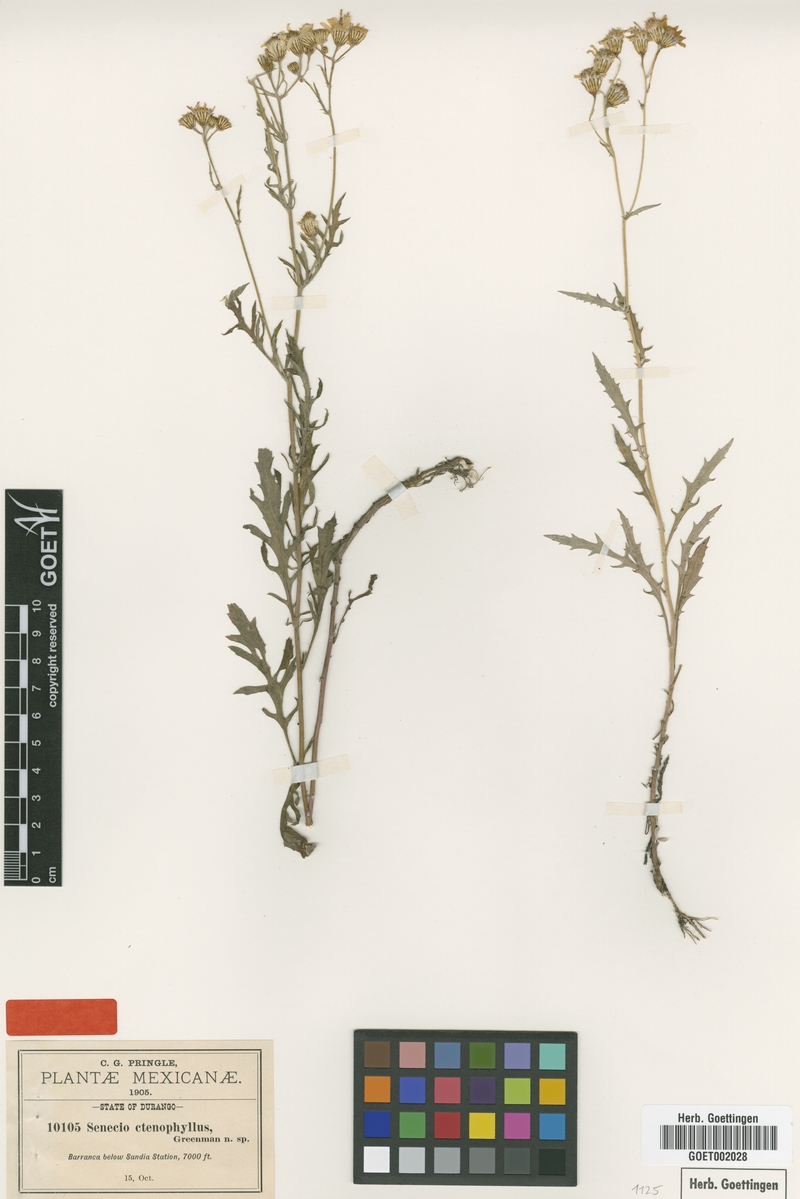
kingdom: Plantae
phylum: Tracheophyta
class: Magnoliopsida
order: Asterales
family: Asteraceae
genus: Senecio
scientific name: Senecio flaccidus
